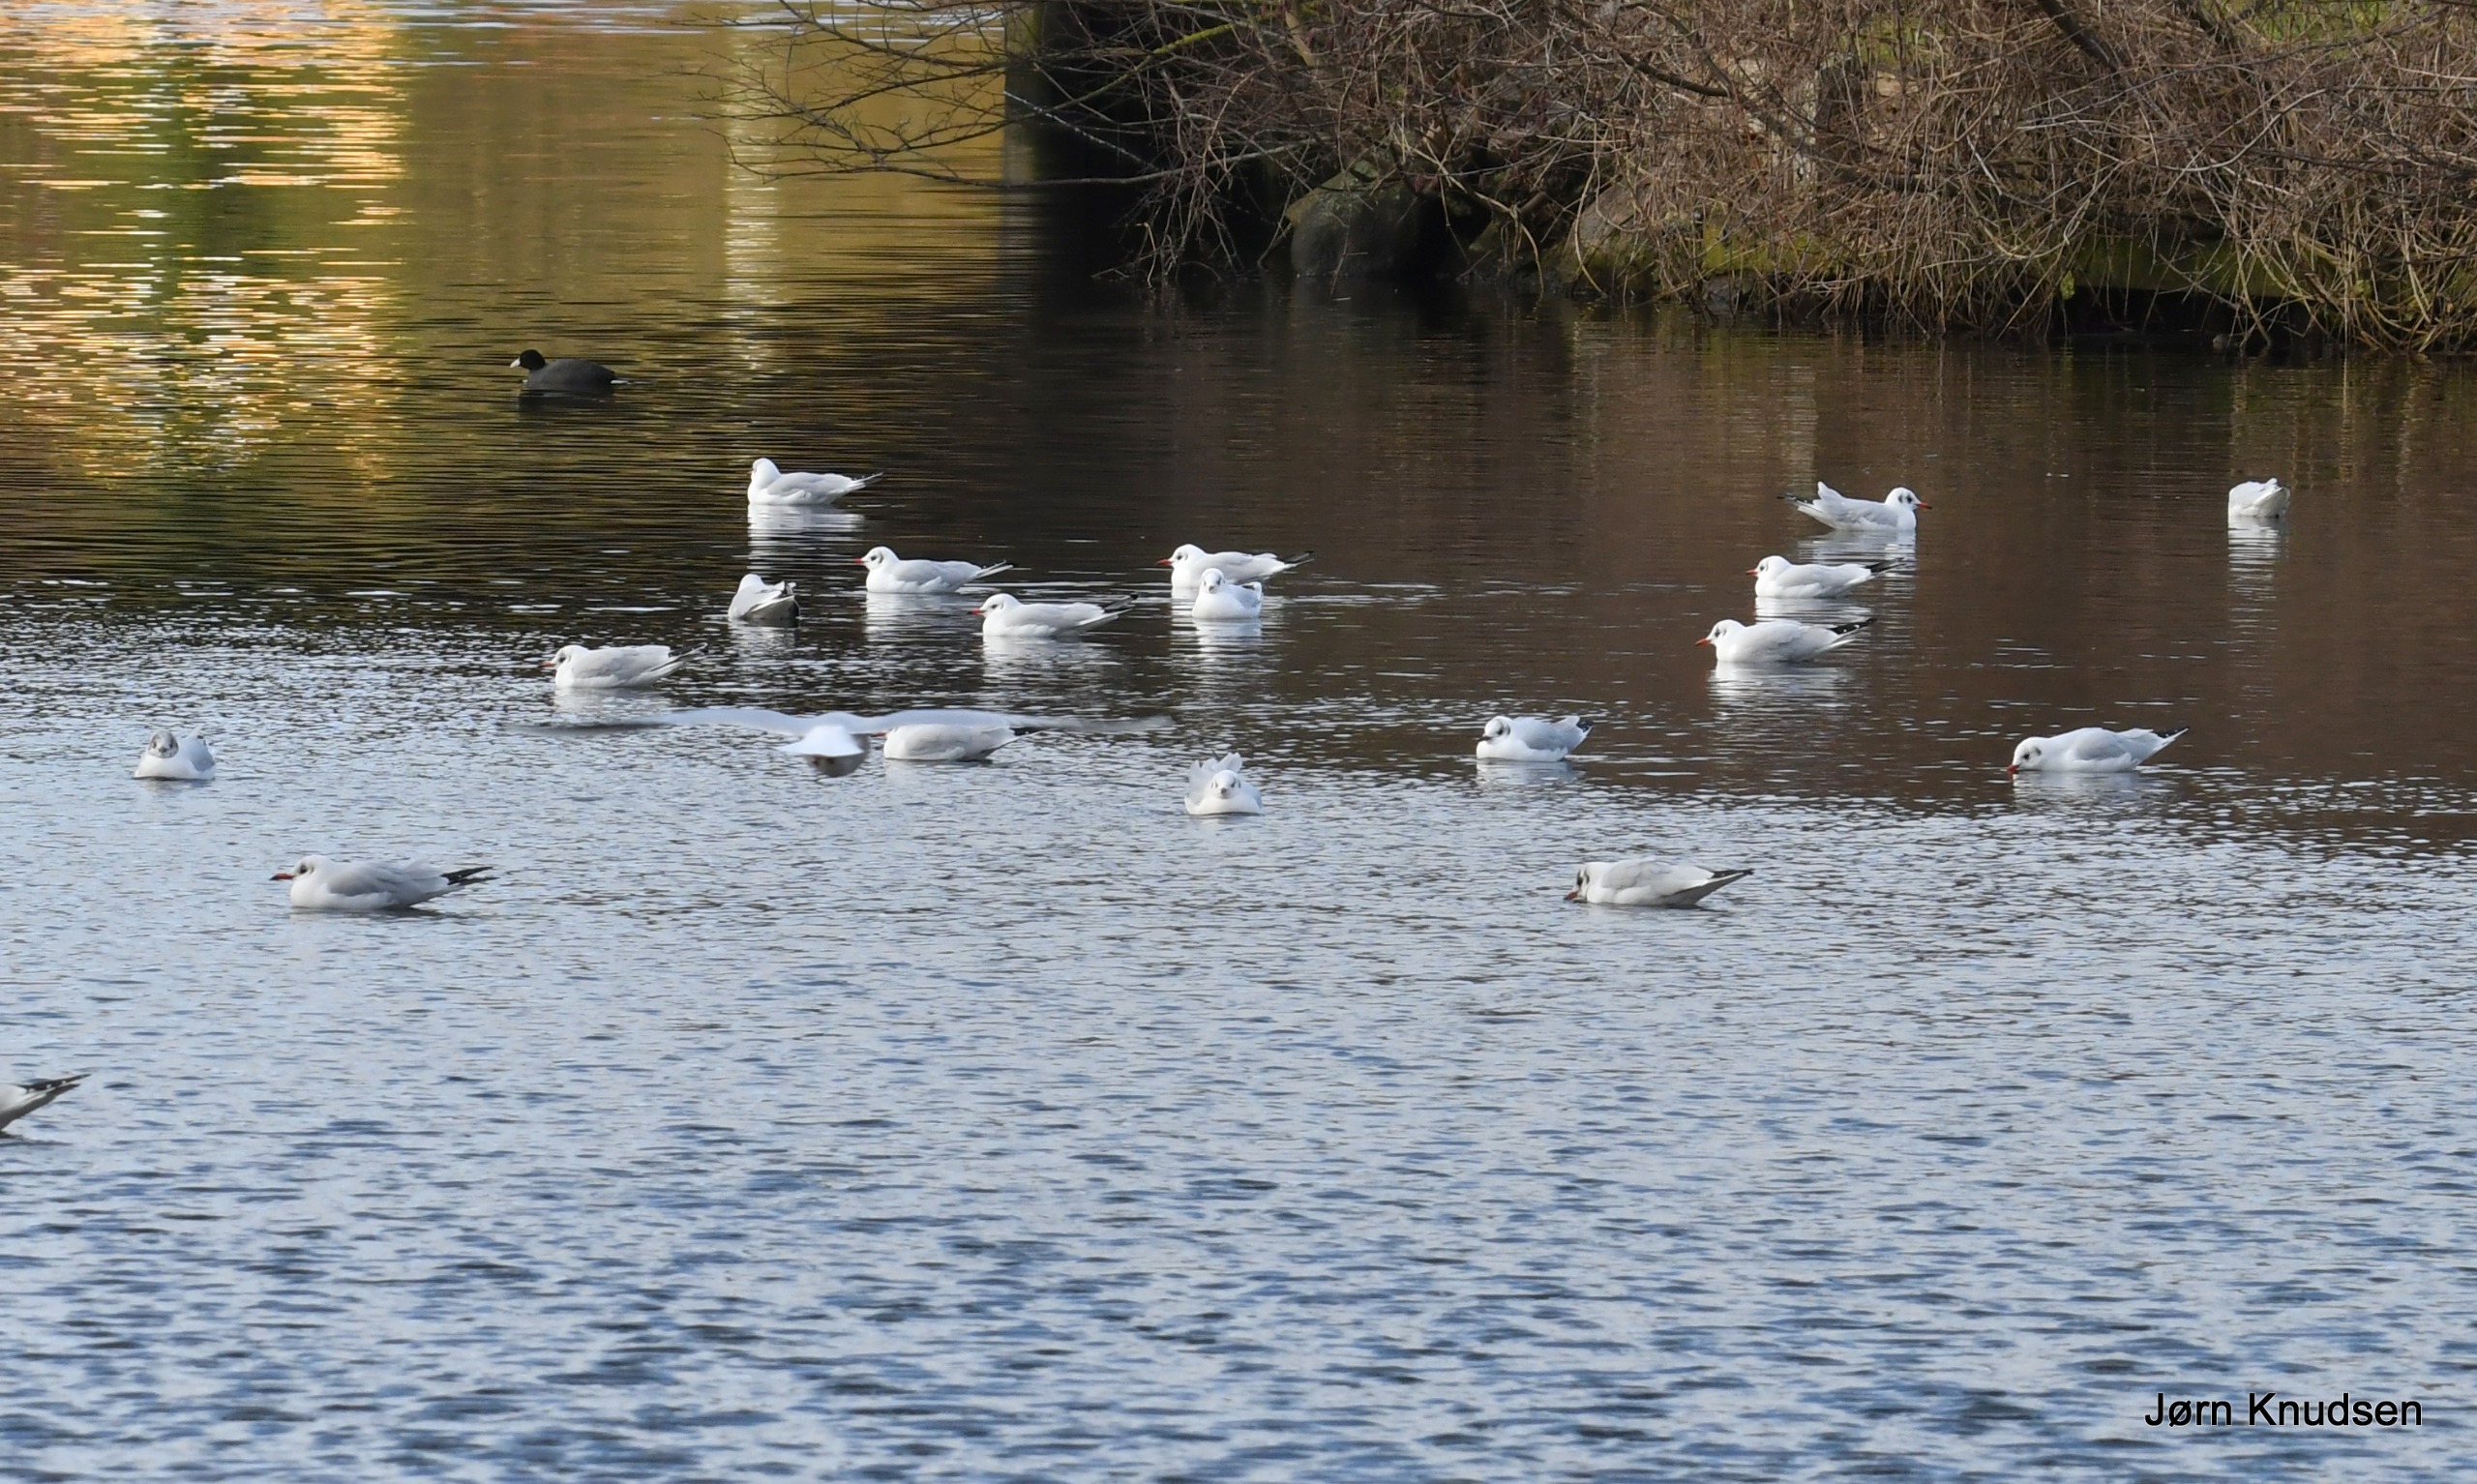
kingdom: Animalia
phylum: Chordata
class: Aves
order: Charadriiformes
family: Laridae
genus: Chroicocephalus
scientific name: Chroicocephalus ridibundus
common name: Hættemåge
